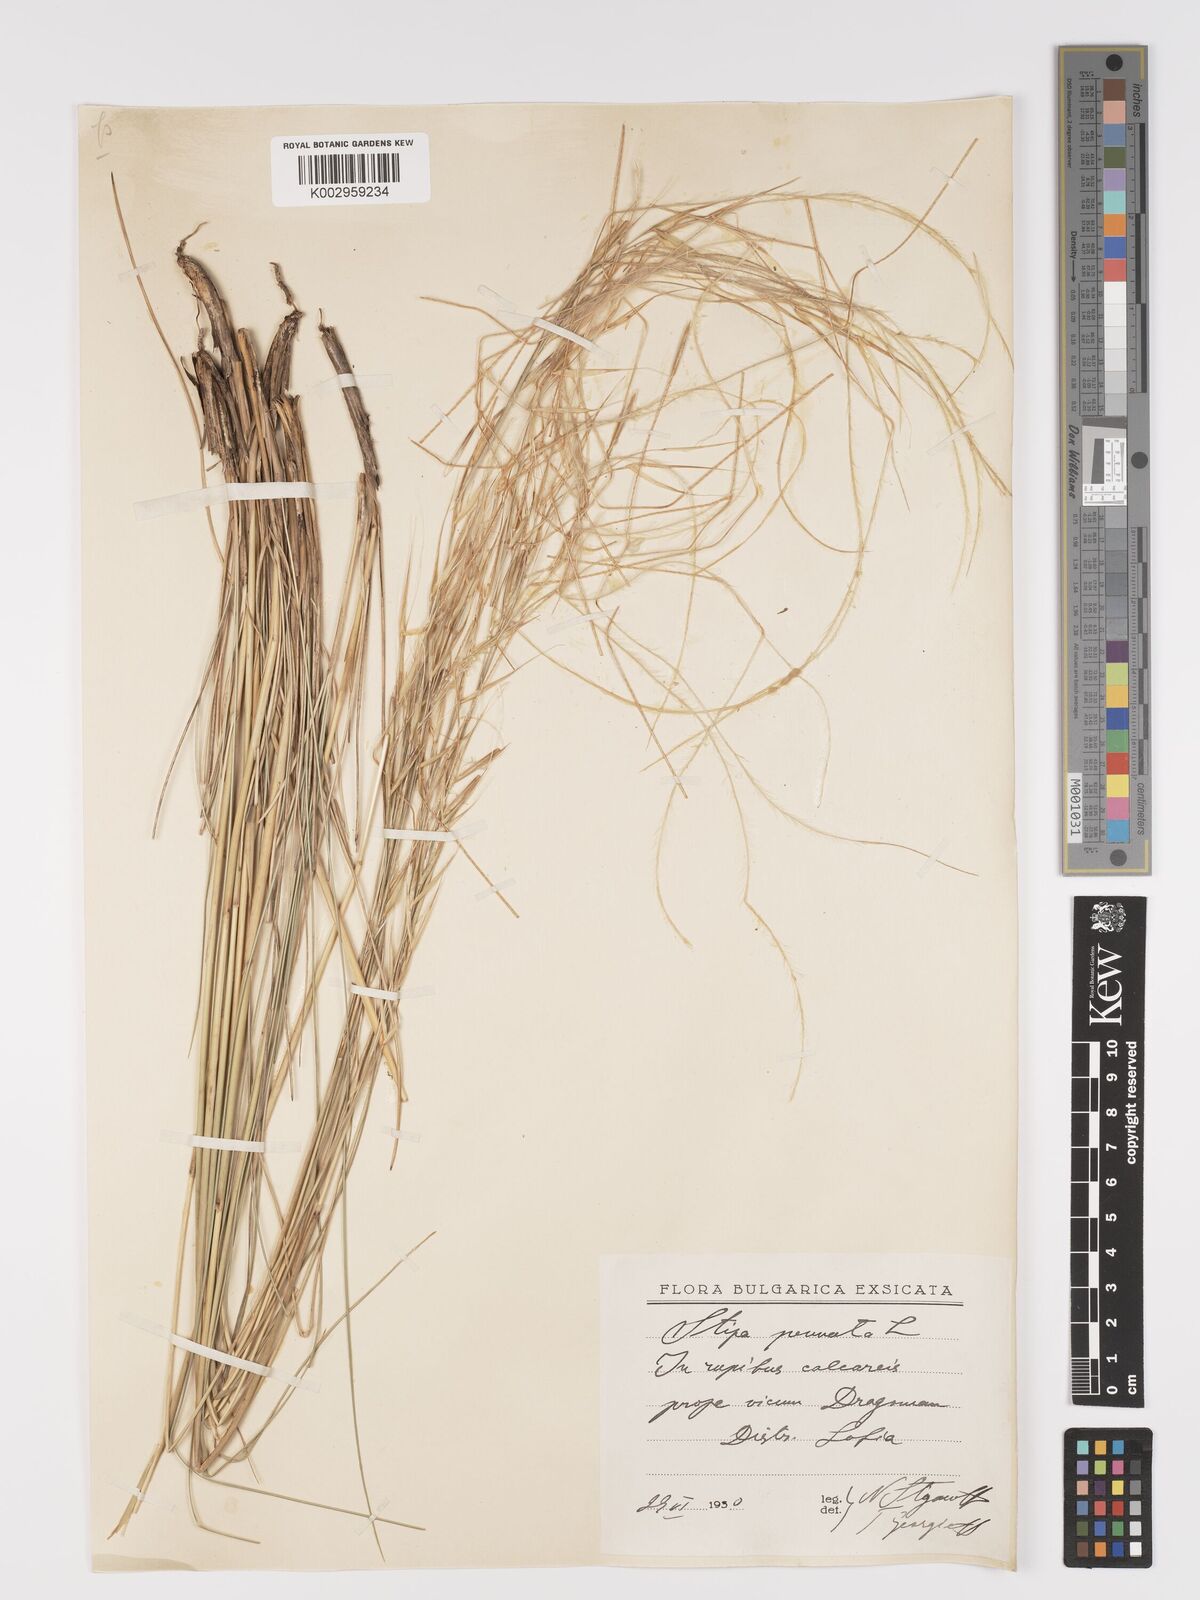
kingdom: Plantae
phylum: Tracheophyta
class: Liliopsida
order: Poales
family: Poaceae
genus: Stipa
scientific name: Stipa pennata
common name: European feather grass
